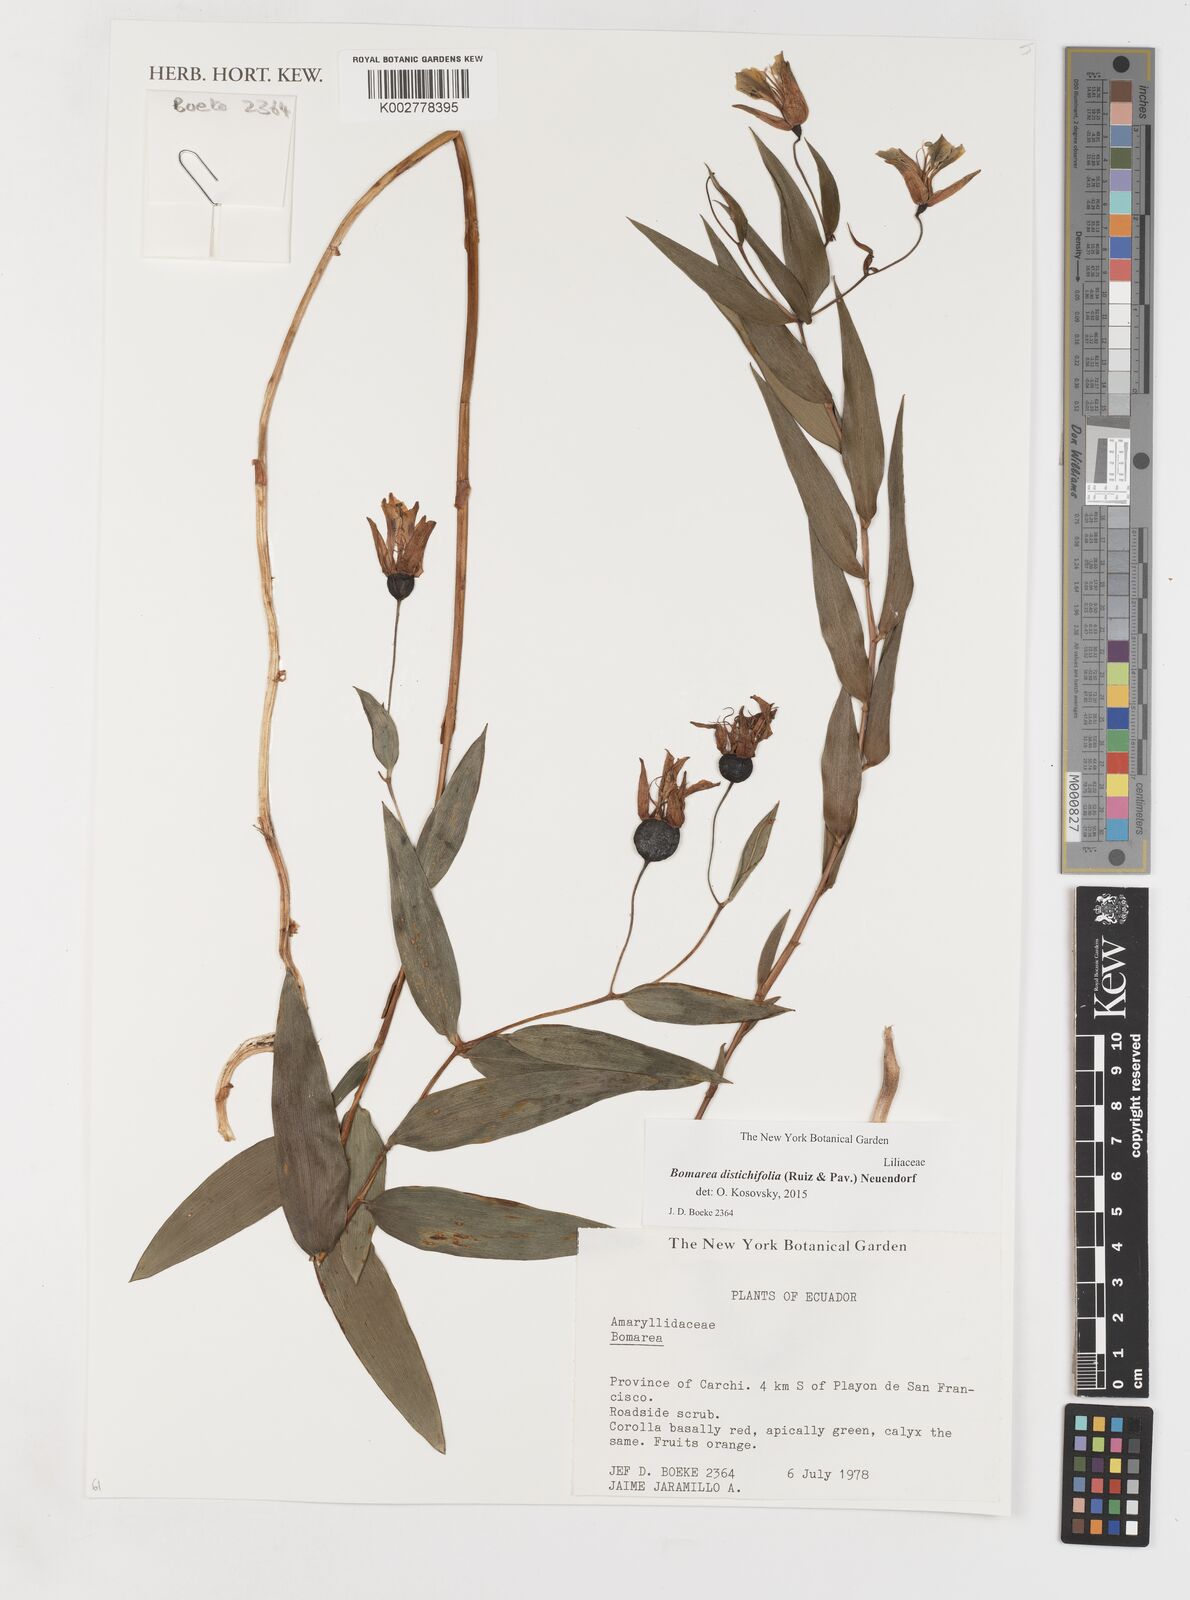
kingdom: Plantae
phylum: Tracheophyta
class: Liliopsida
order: Liliales
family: Alstroemeriaceae
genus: Bomarea
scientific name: Bomarea distichifolia
